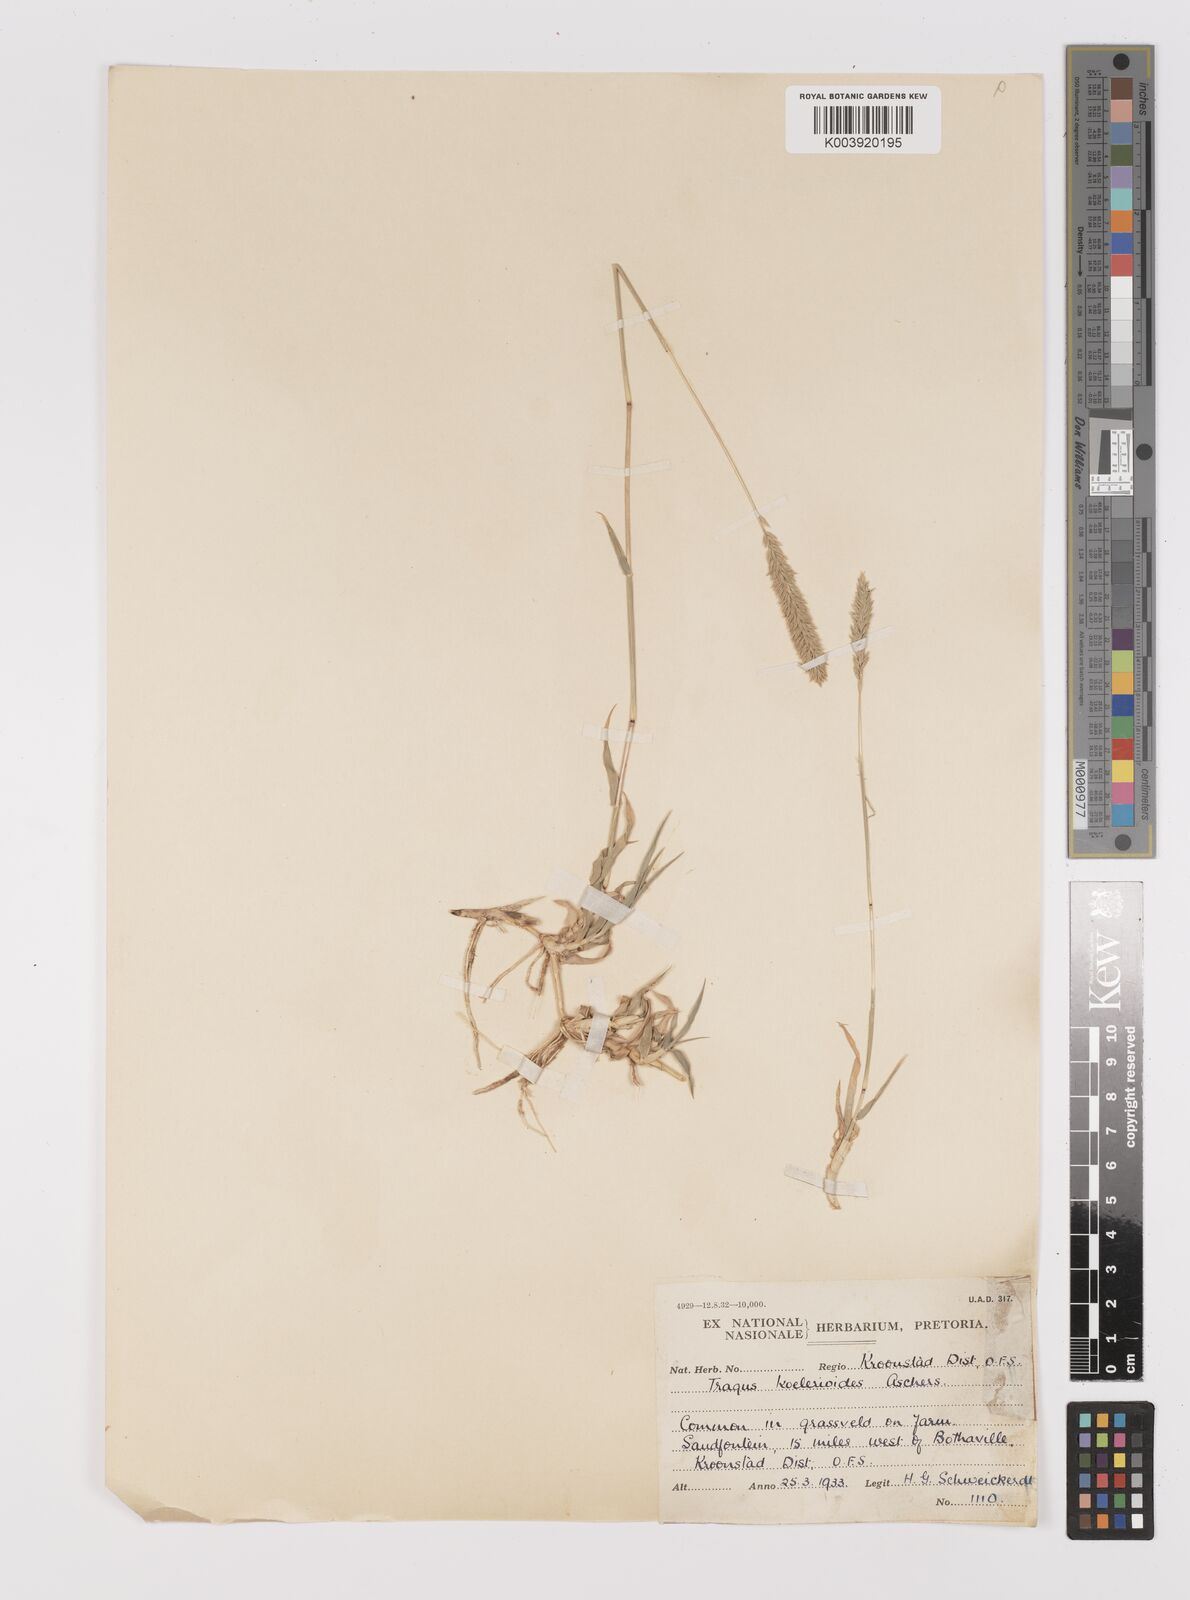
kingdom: Plantae
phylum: Tracheophyta
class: Liliopsida
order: Poales
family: Poaceae
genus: Tragus
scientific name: Tragus koelerioides
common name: Creeping carrot-seed grass
